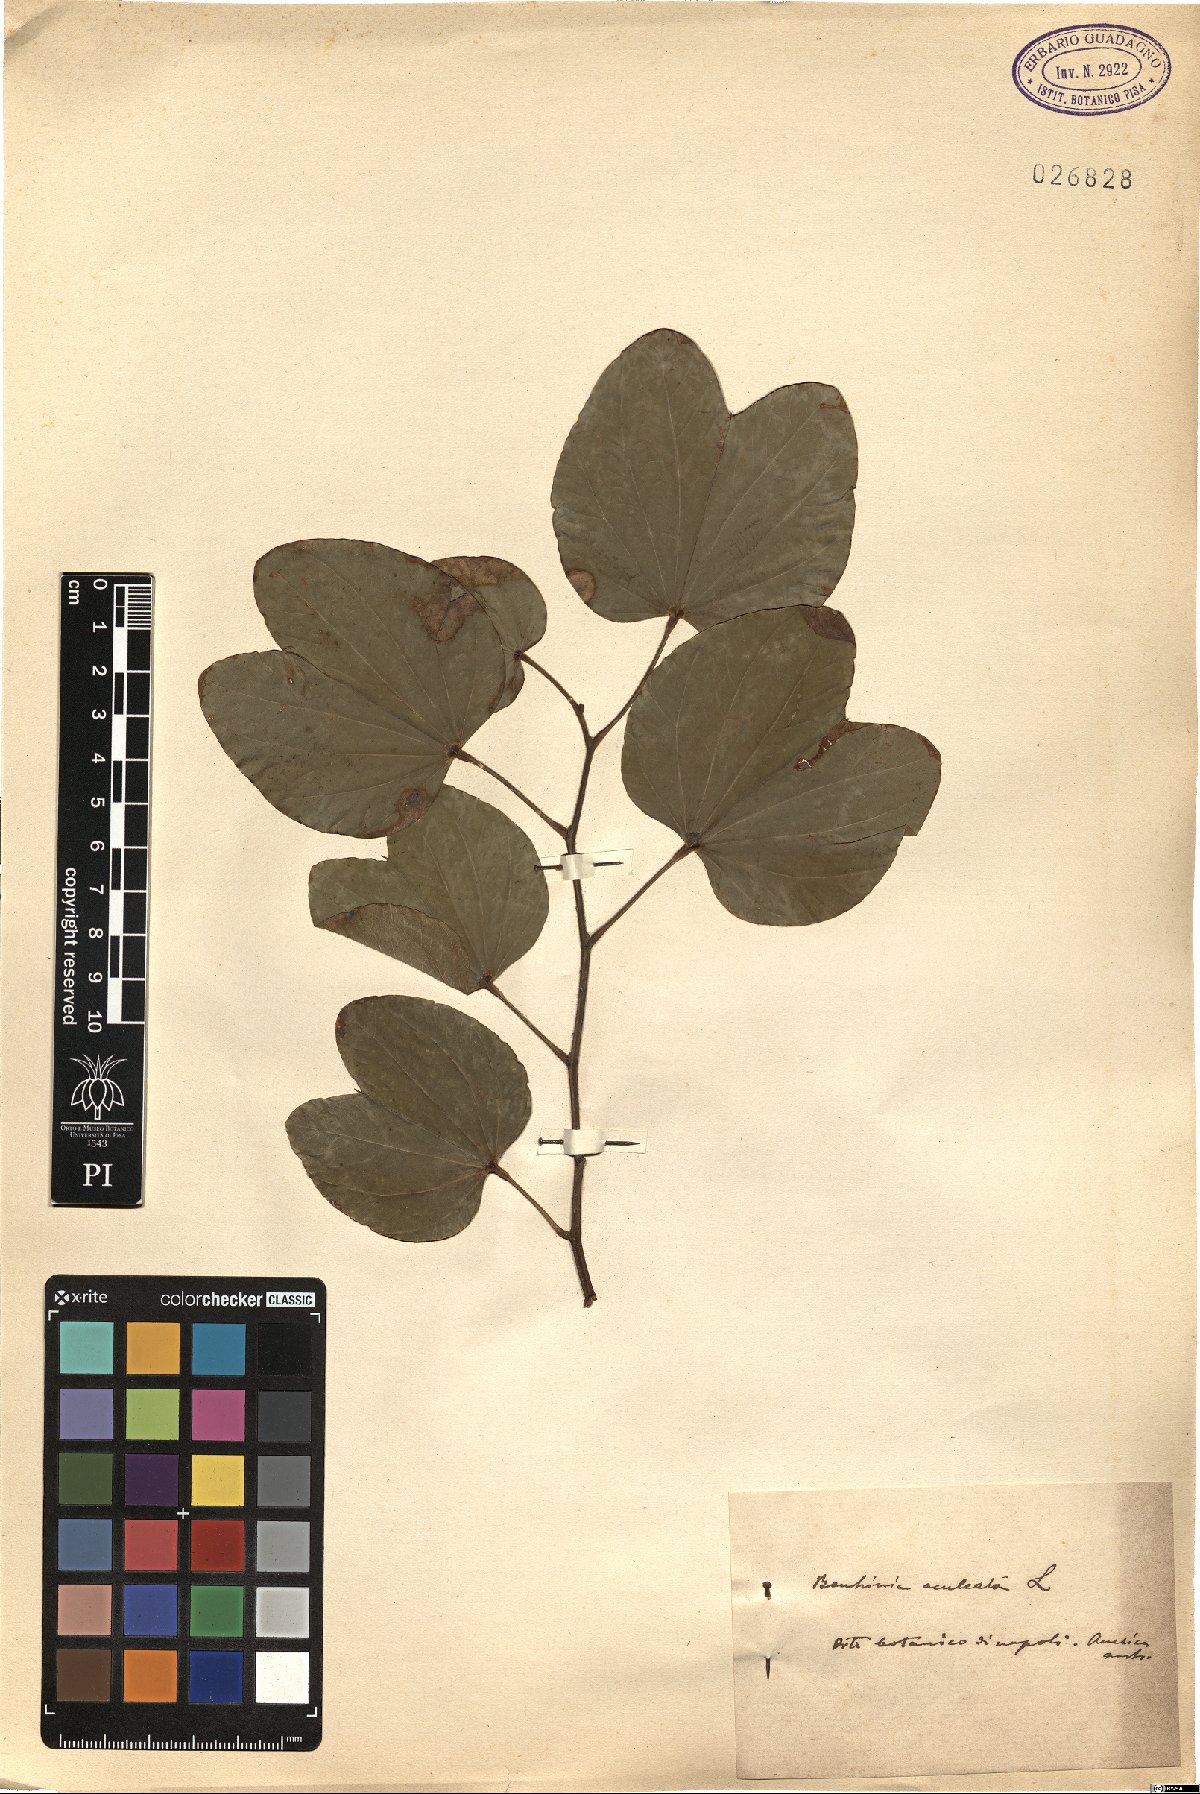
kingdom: Plantae
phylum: Tracheophyta
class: Magnoliopsida
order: Fabales
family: Fabaceae
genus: Bauhinia
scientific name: Bauhinia aculeata
